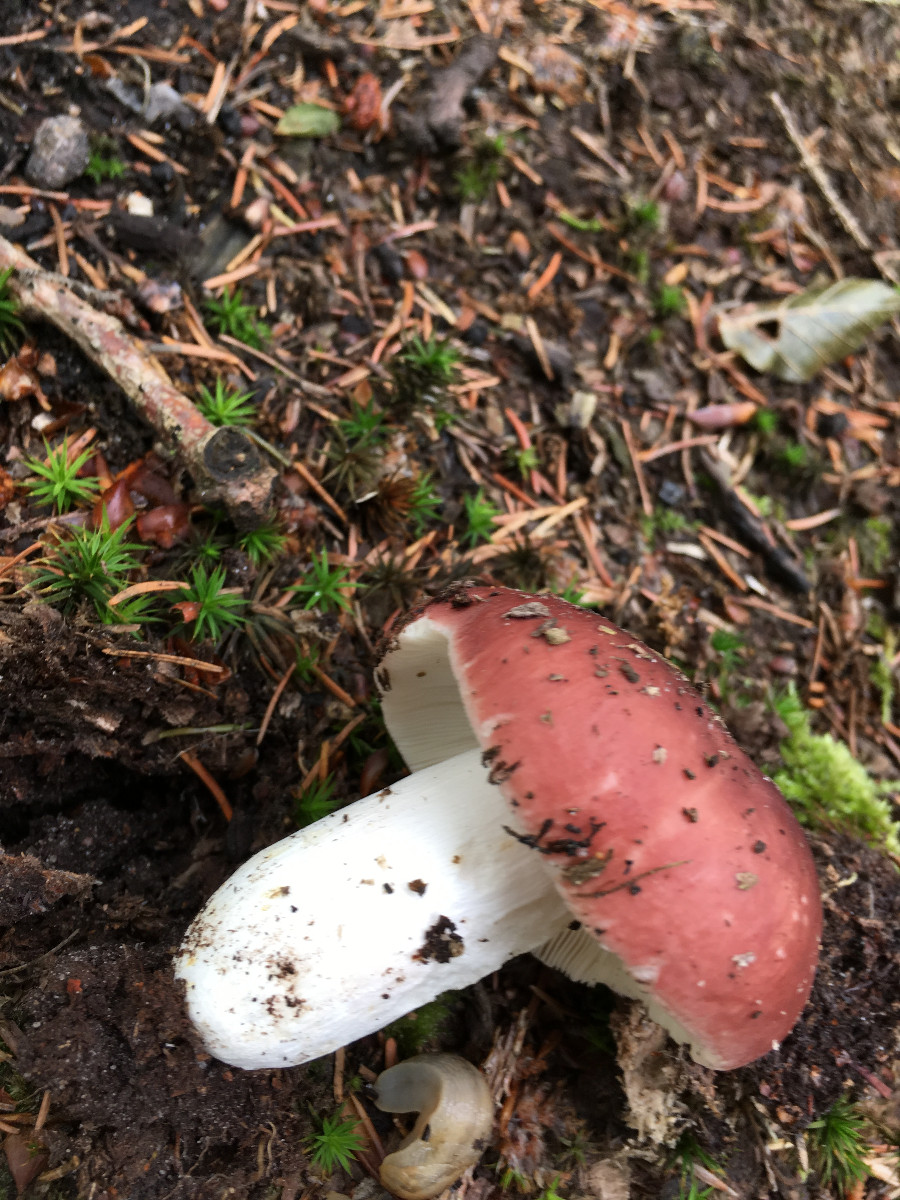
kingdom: Fungi
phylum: Basidiomycota
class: Agaricomycetes
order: Russulales
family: Russulaceae
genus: Russula
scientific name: Russula vesca
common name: spiselig skørhat
